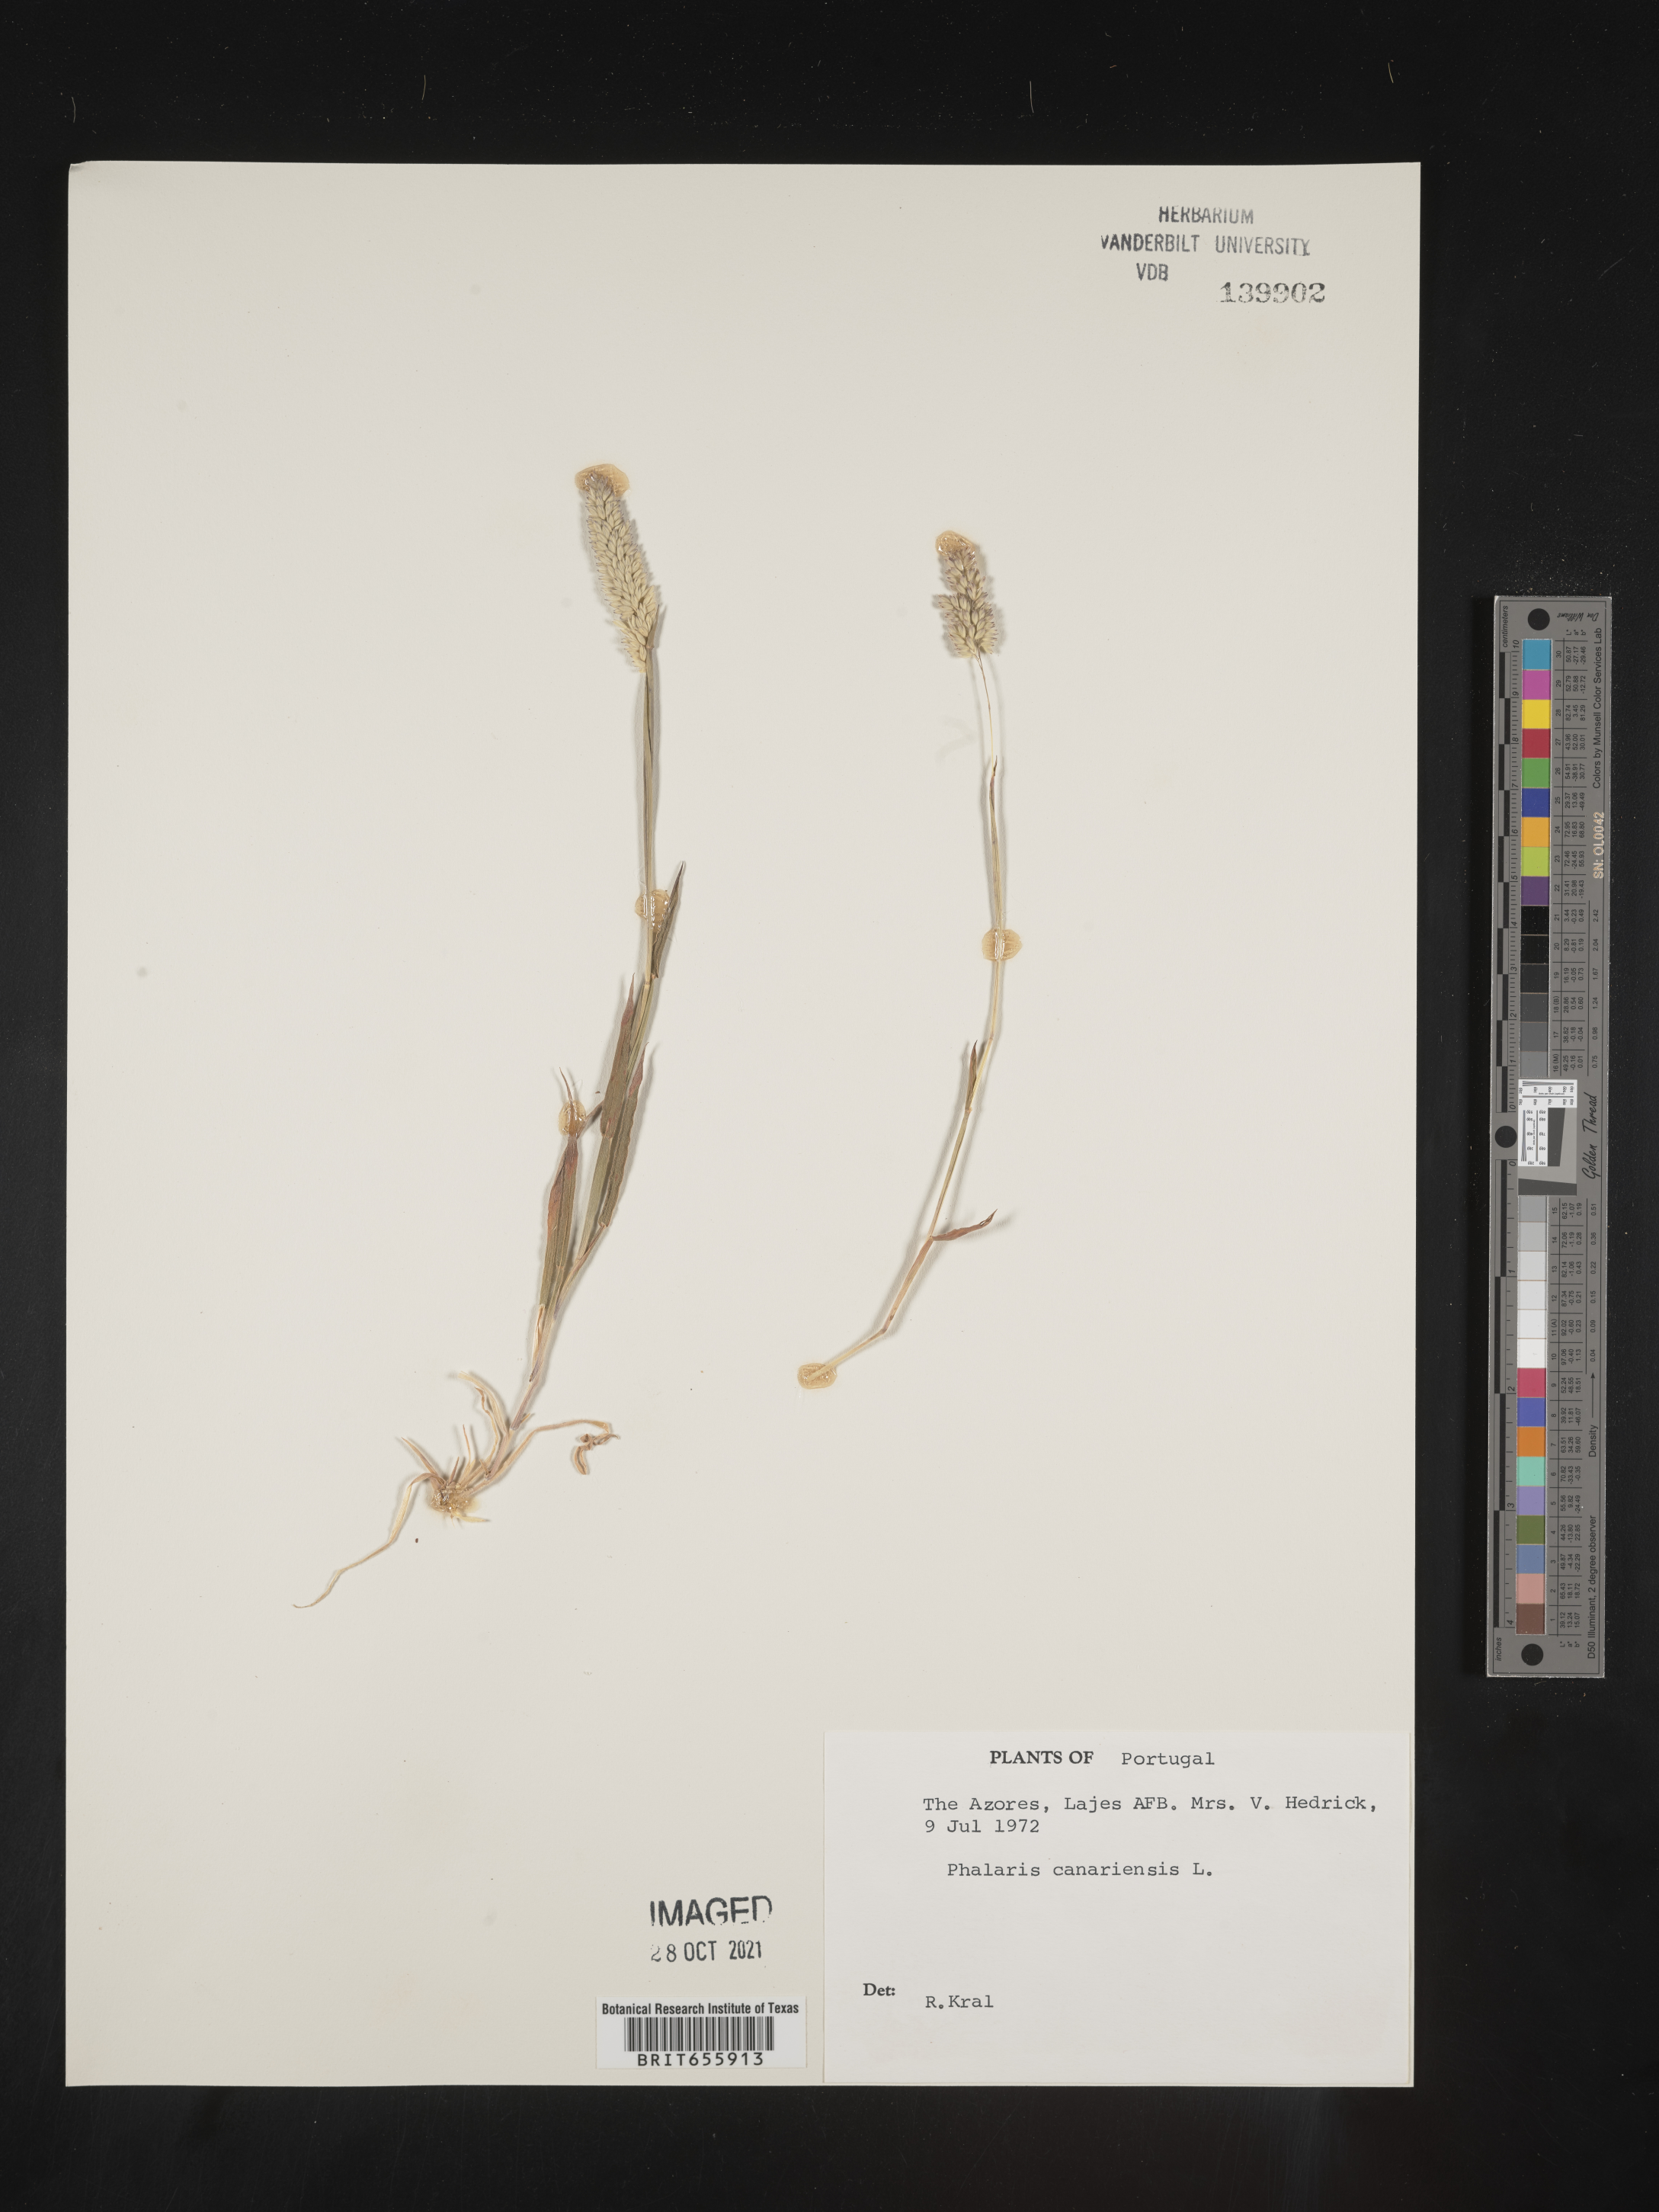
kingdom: Plantae
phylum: Tracheophyta
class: Liliopsida
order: Poales
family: Poaceae
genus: Phalaris
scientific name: Phalaris
